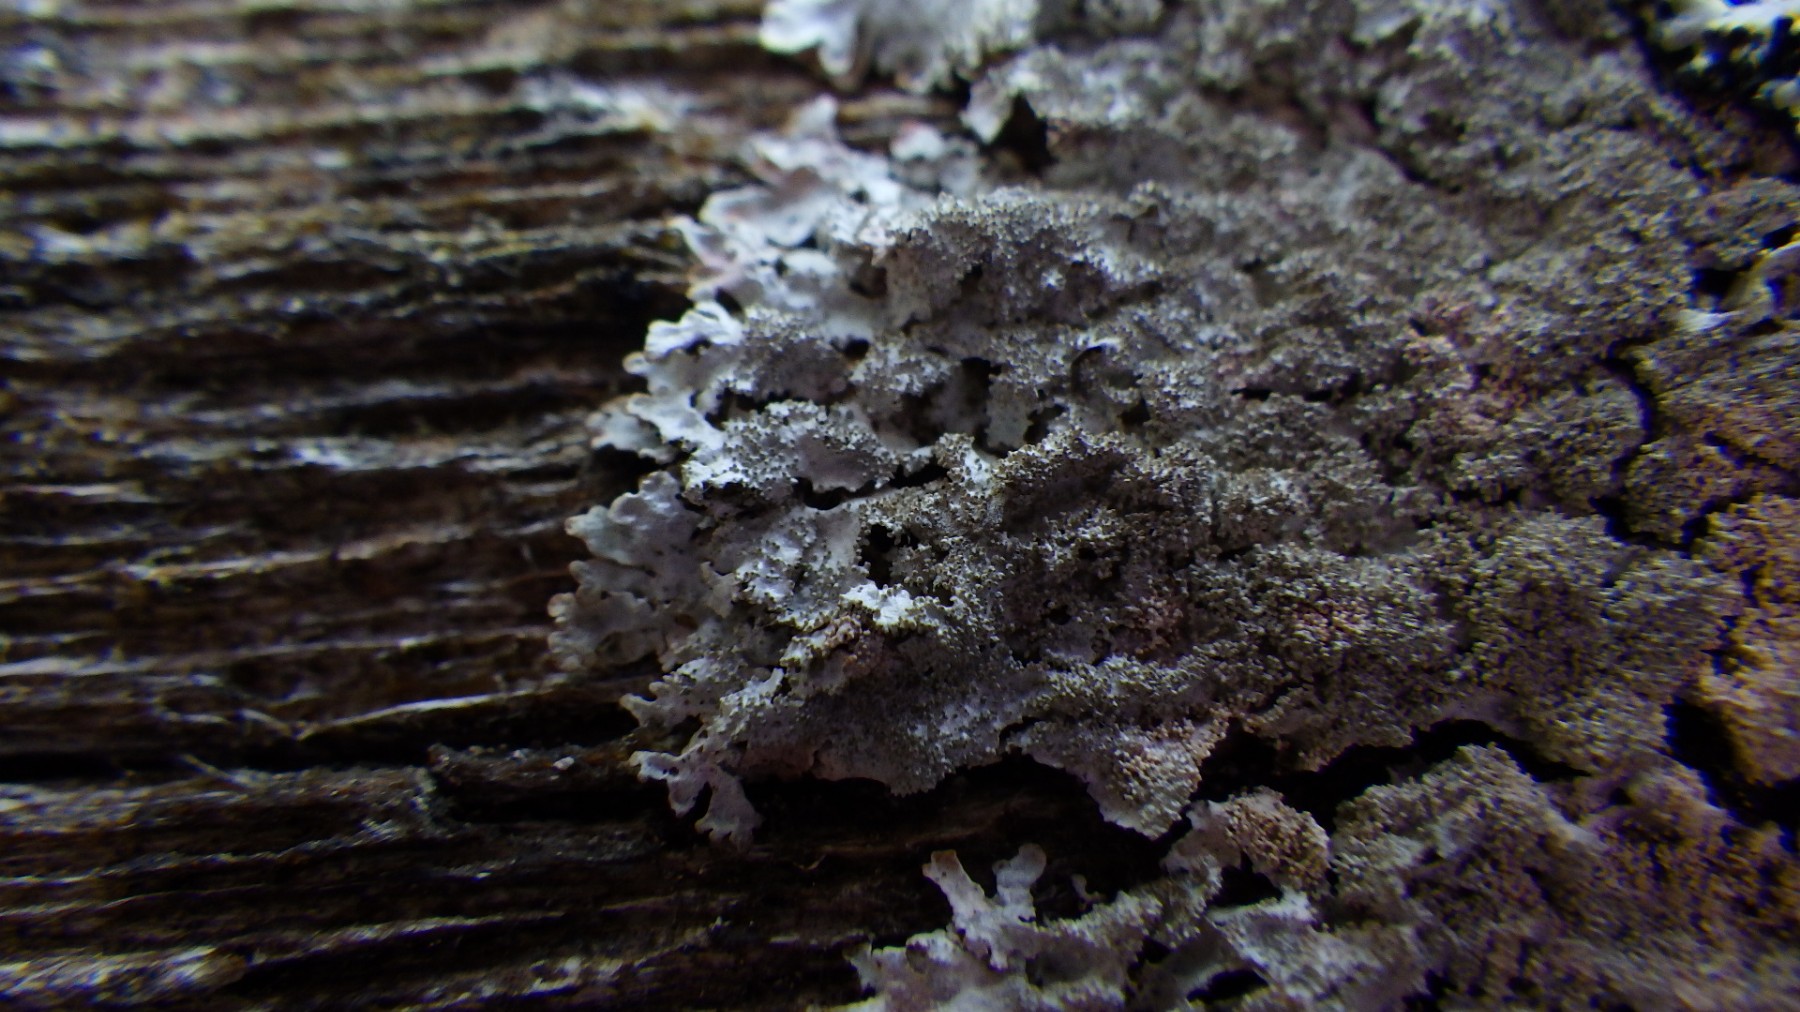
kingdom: Fungi
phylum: Ascomycota
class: Lecanoromycetes
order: Lecanorales
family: Parmeliaceae
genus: Imshaugia
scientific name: Imshaugia aleurites
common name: kliddet stolpelav
